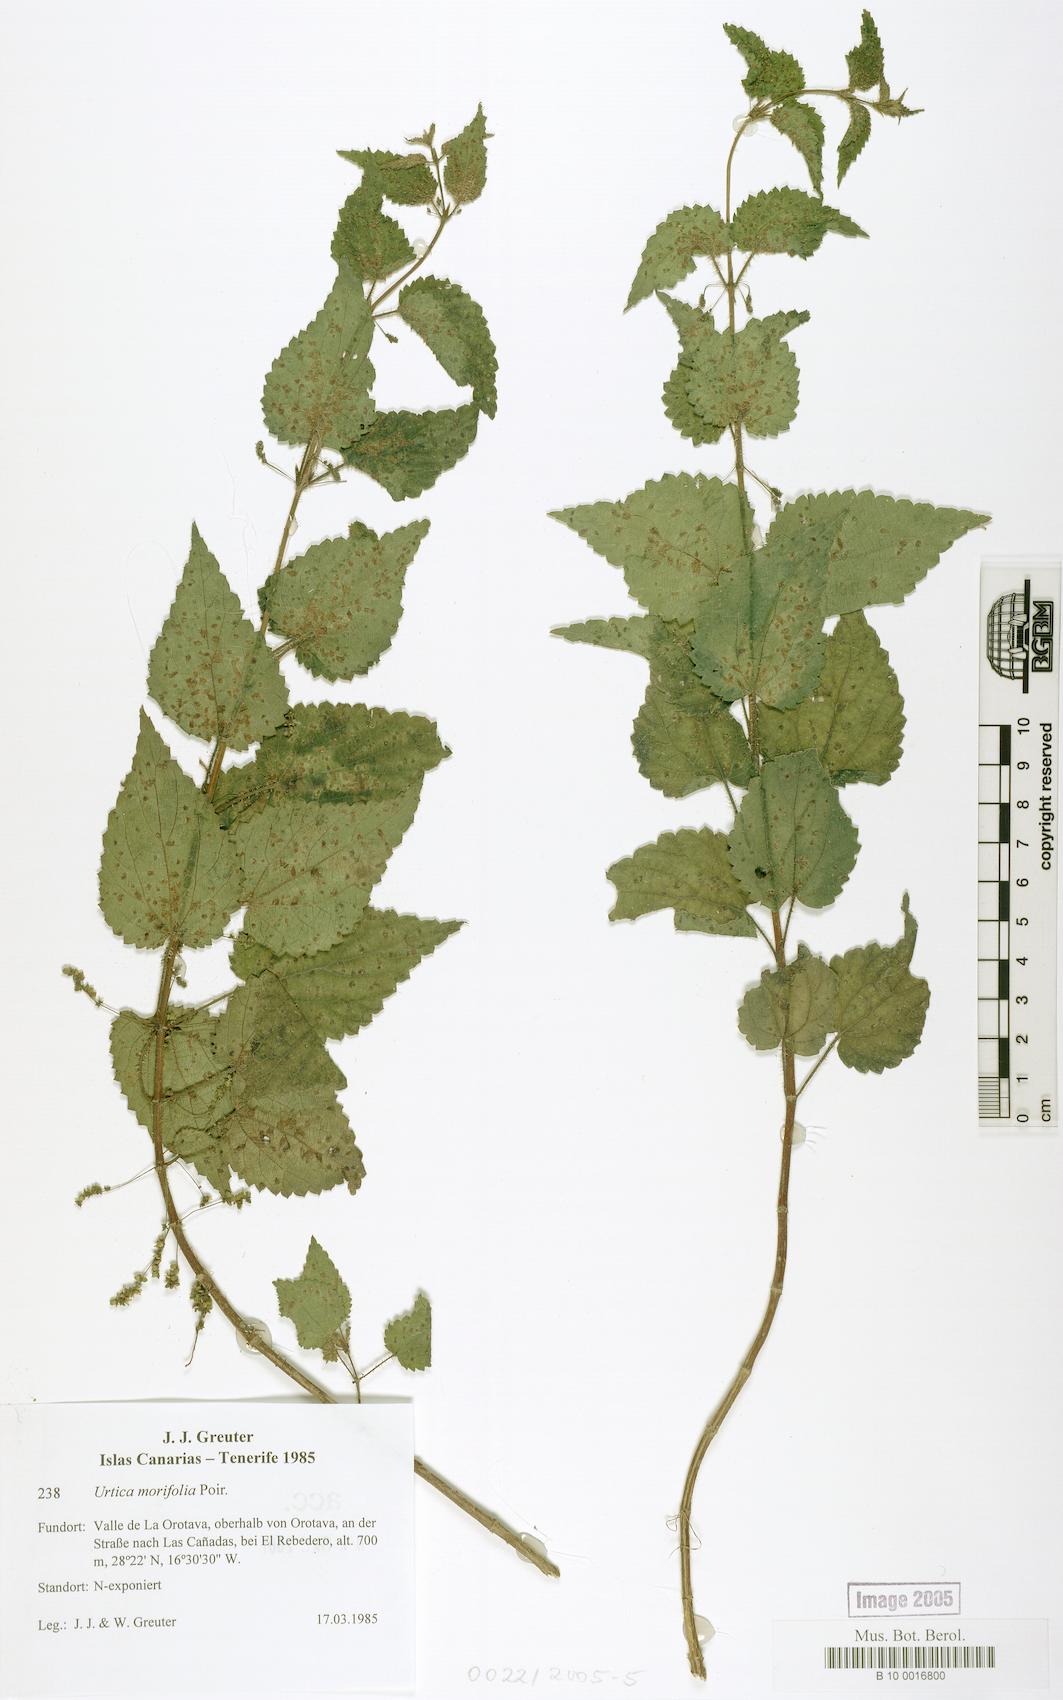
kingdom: Plantae
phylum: Tracheophyta
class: Magnoliopsida
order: Rosales
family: Urticaceae
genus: Urtica
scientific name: Urtica morifolia
